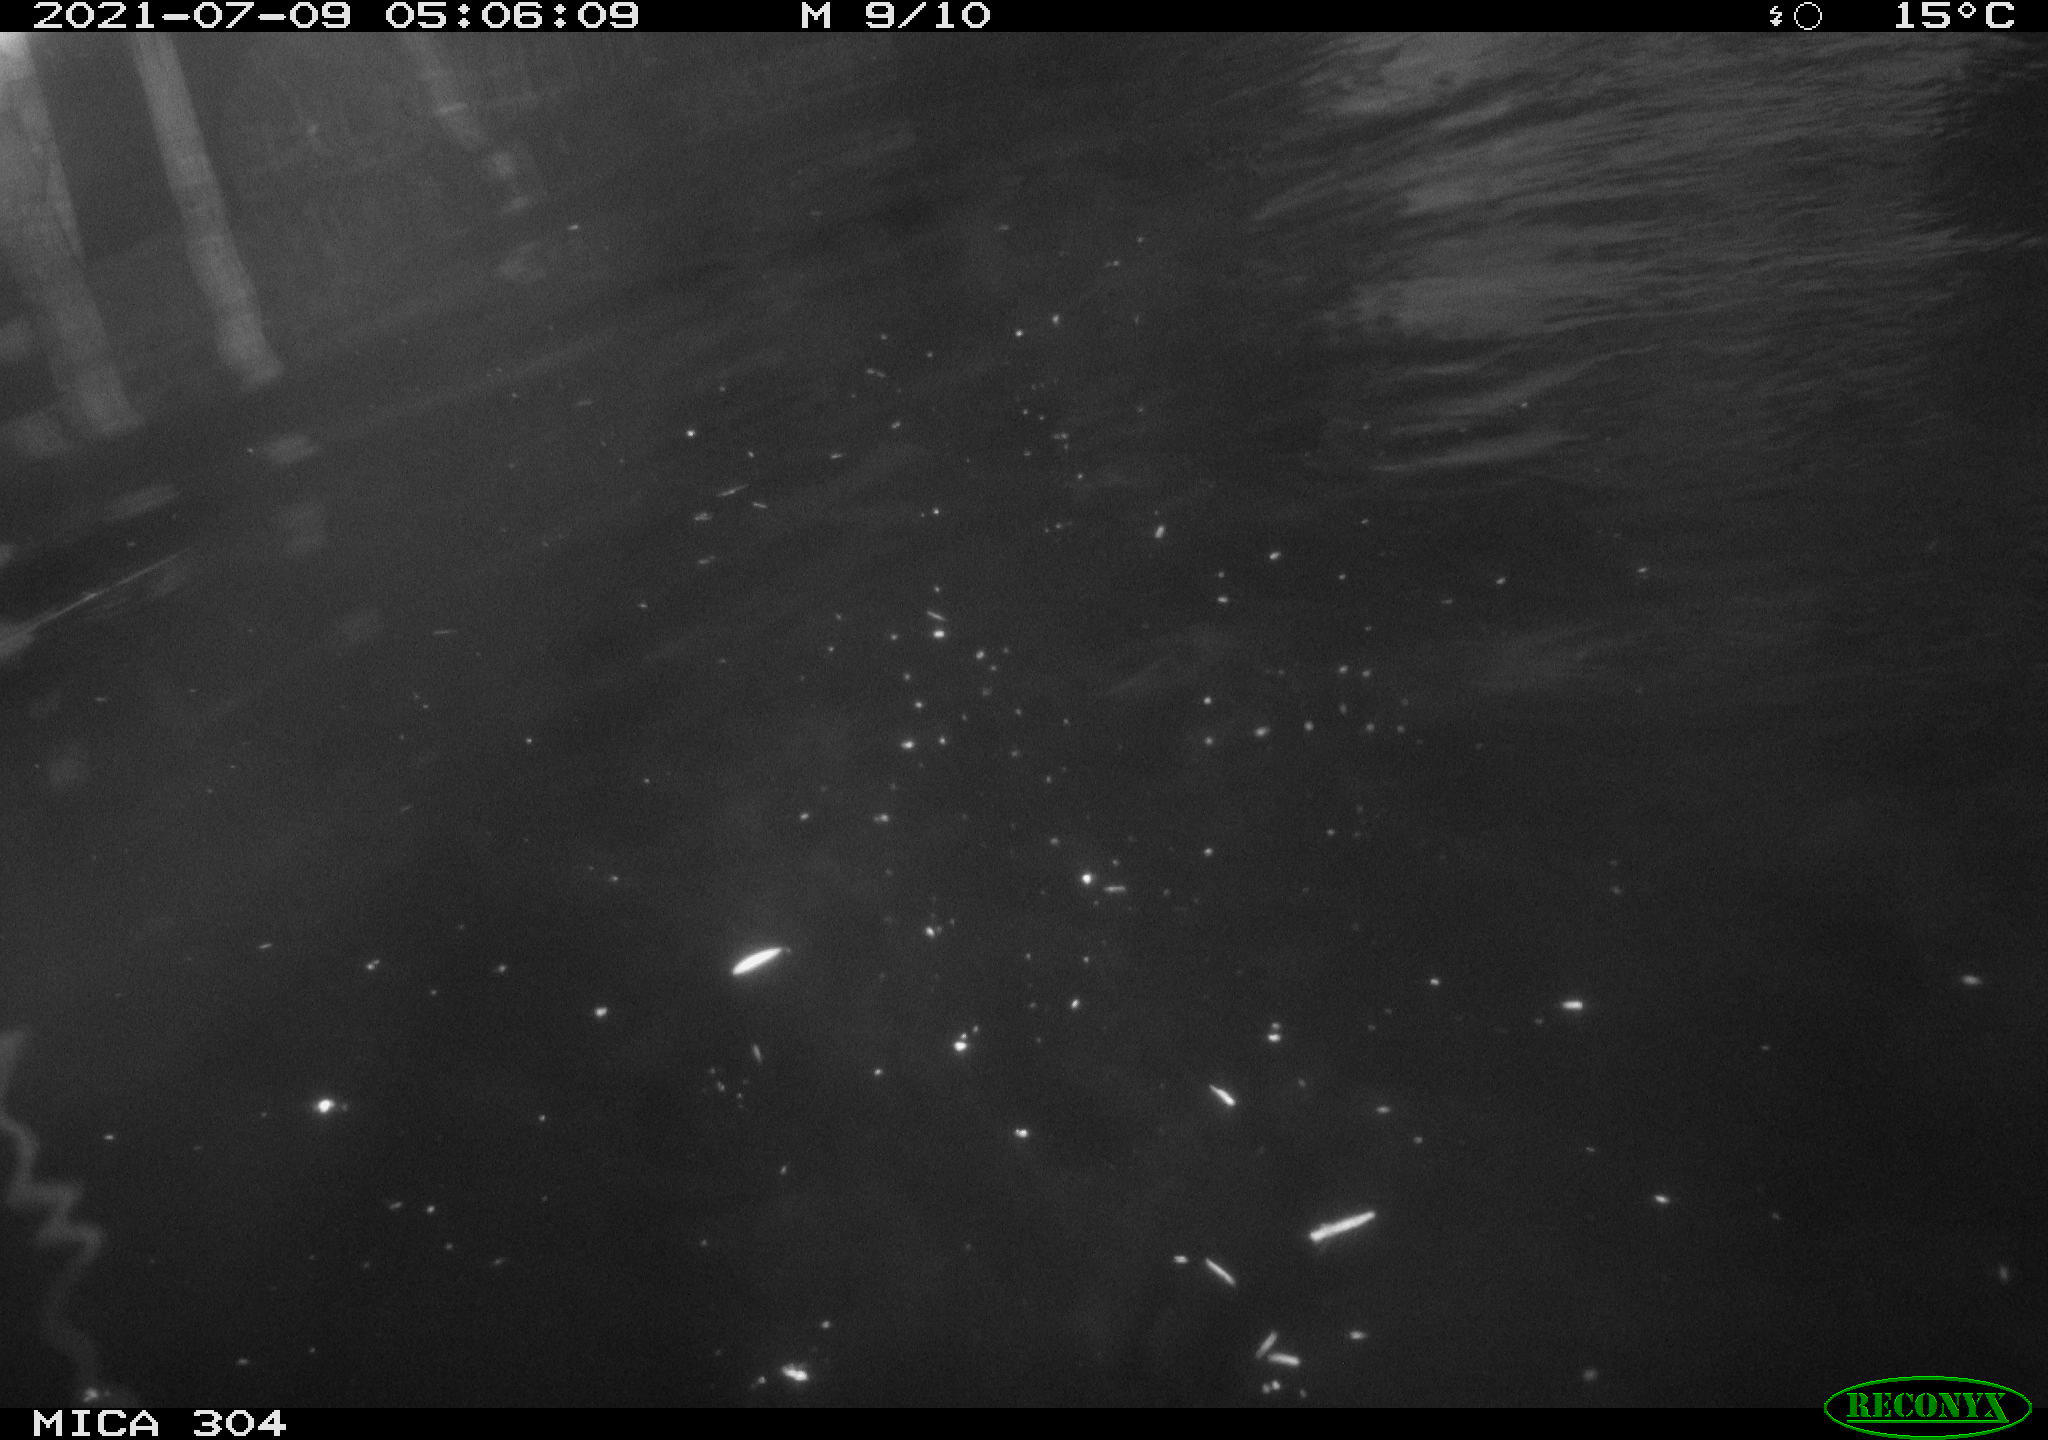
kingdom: Animalia
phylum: Chordata
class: Aves
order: Anseriformes
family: Anatidae
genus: Anas
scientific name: Anas platyrhynchos
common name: Mallard
